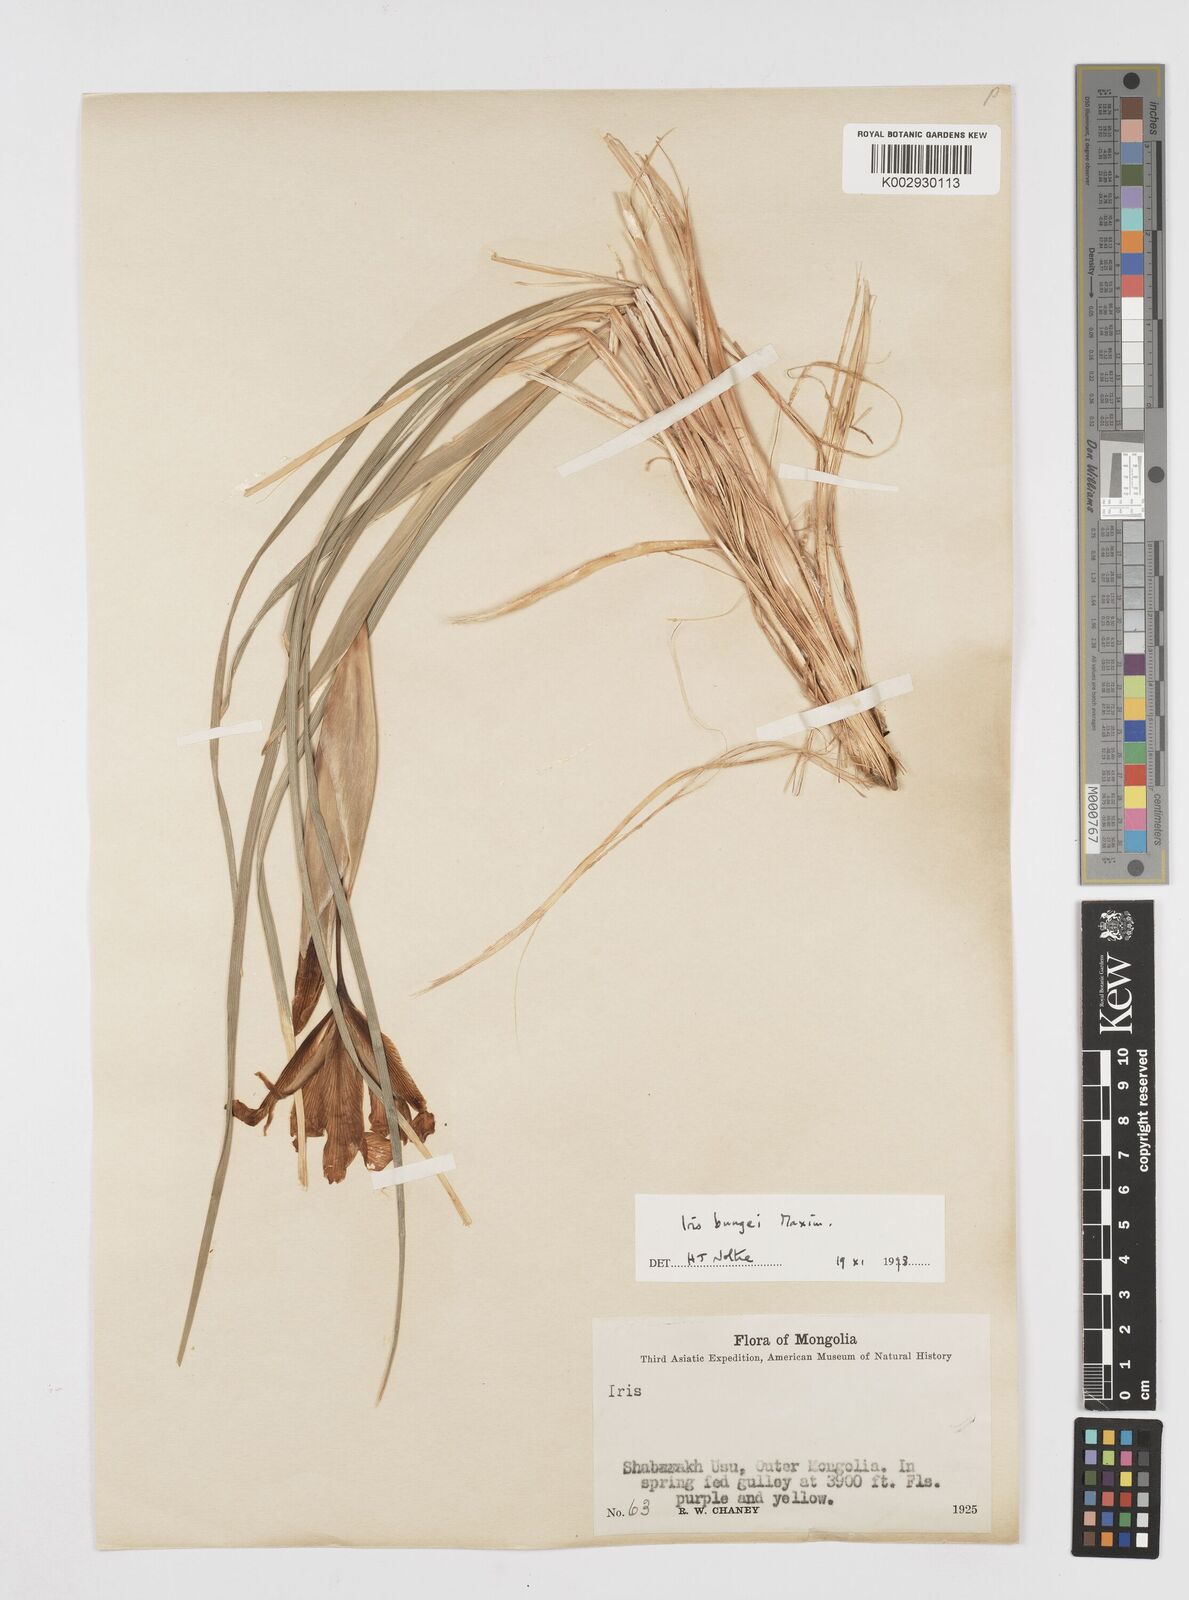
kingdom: Plantae
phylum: Tracheophyta
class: Liliopsida
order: Asparagales
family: Iridaceae
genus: Iris
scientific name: Iris bungei
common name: Large-bract iris
